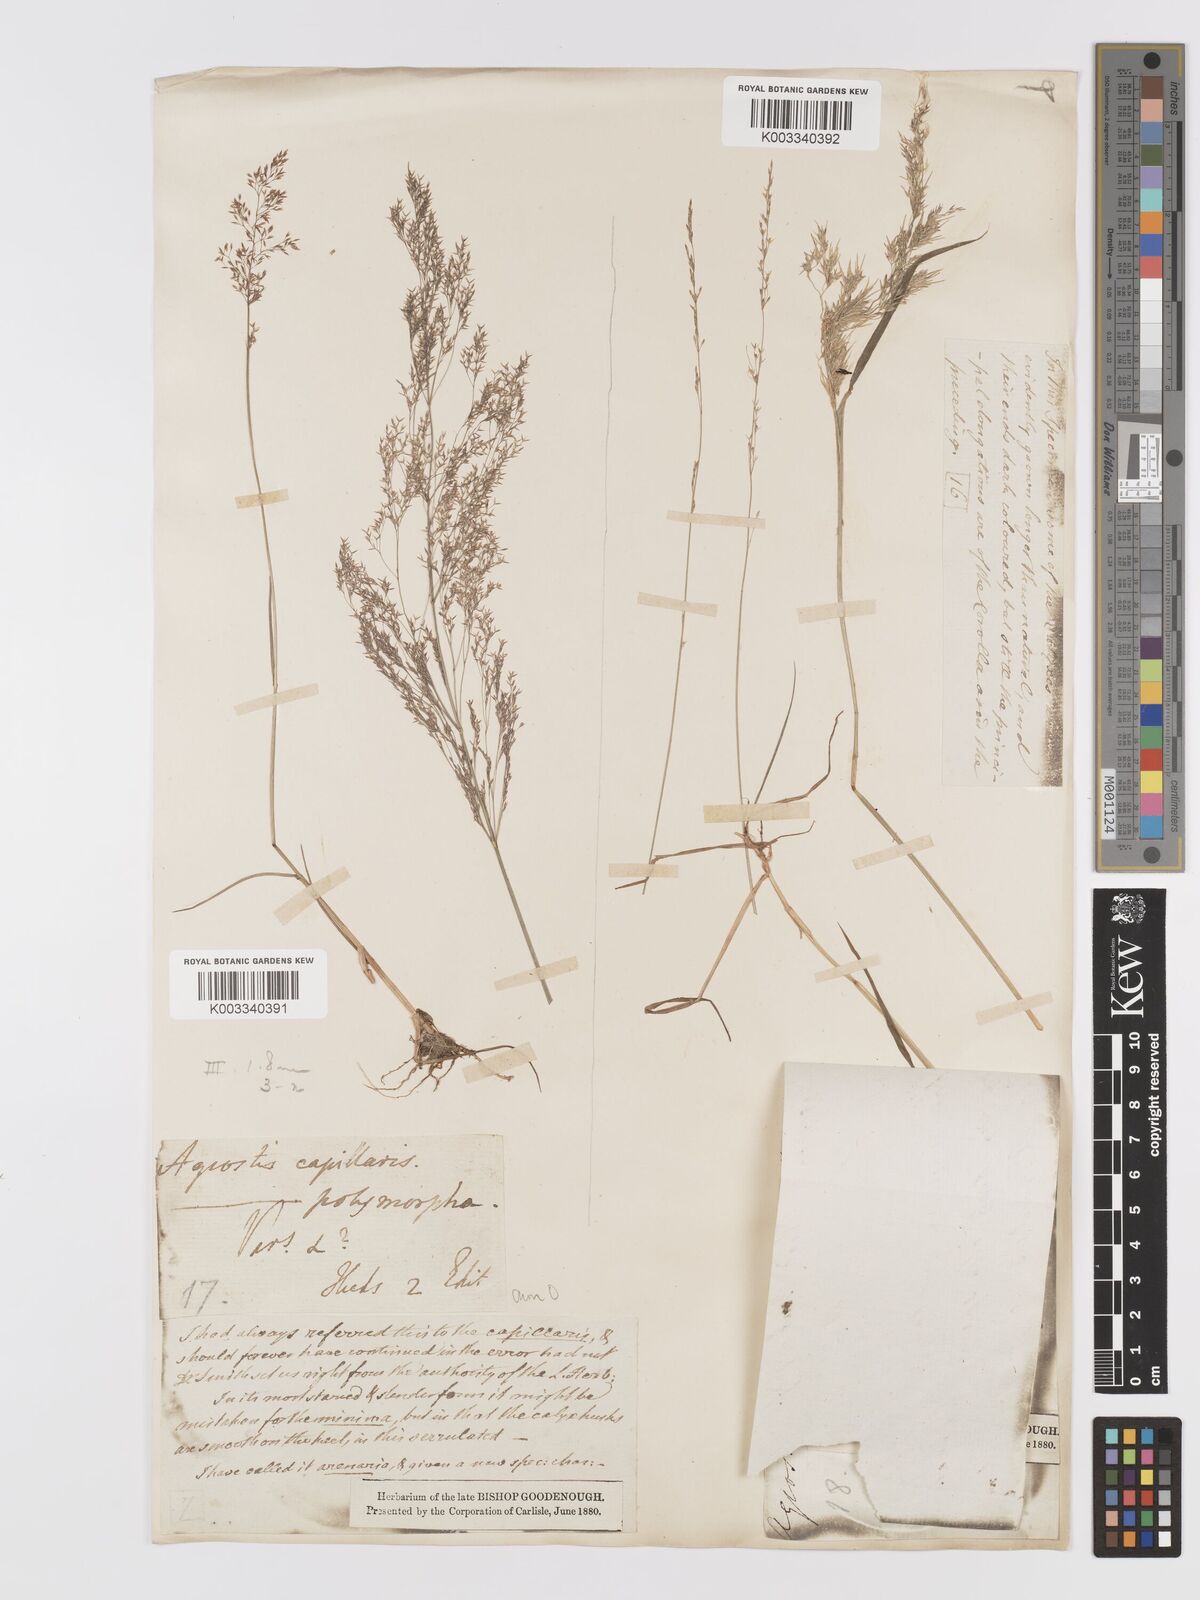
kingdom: Plantae
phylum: Tracheophyta
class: Liliopsida
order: Poales
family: Poaceae
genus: Agrostis
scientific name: Agrostis capillaris
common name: Colonial bentgrass
